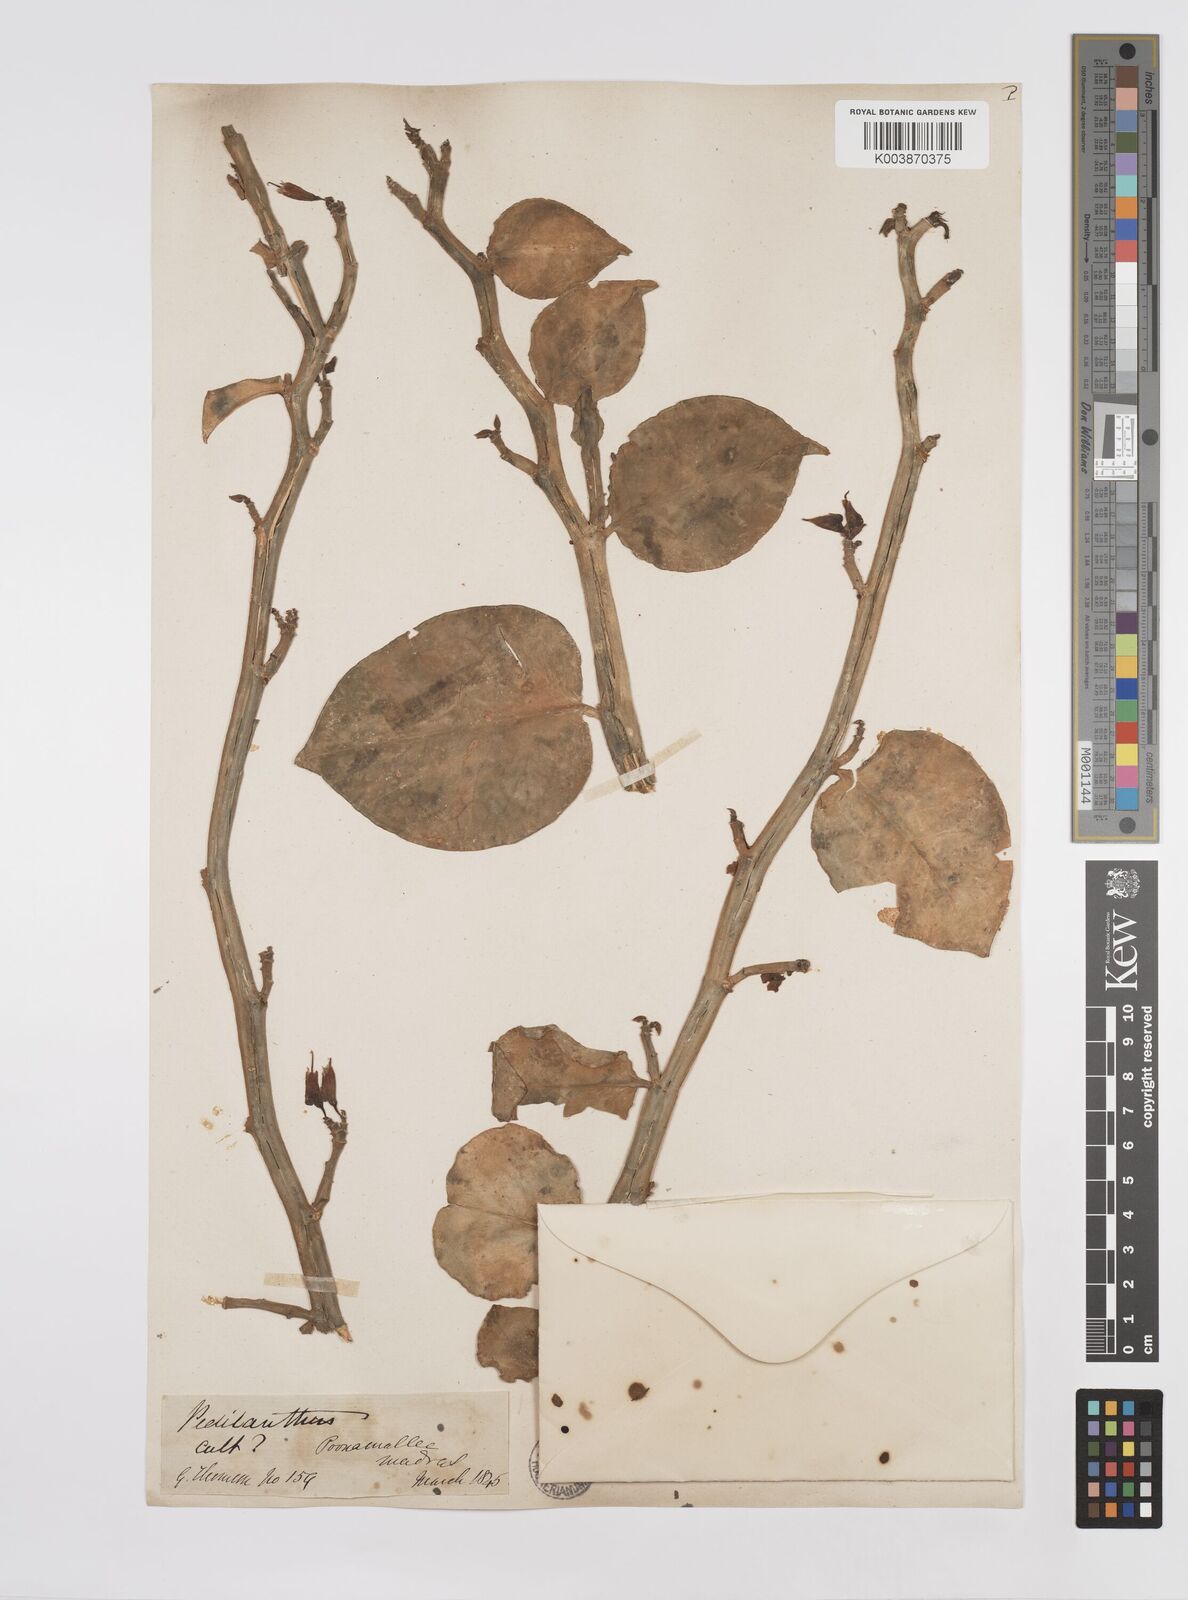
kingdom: Plantae
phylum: Tracheophyta
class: Magnoliopsida
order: Malpighiales
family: Euphorbiaceae
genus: Euphorbia
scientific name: Euphorbia tithymaloides
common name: Slipperplant
